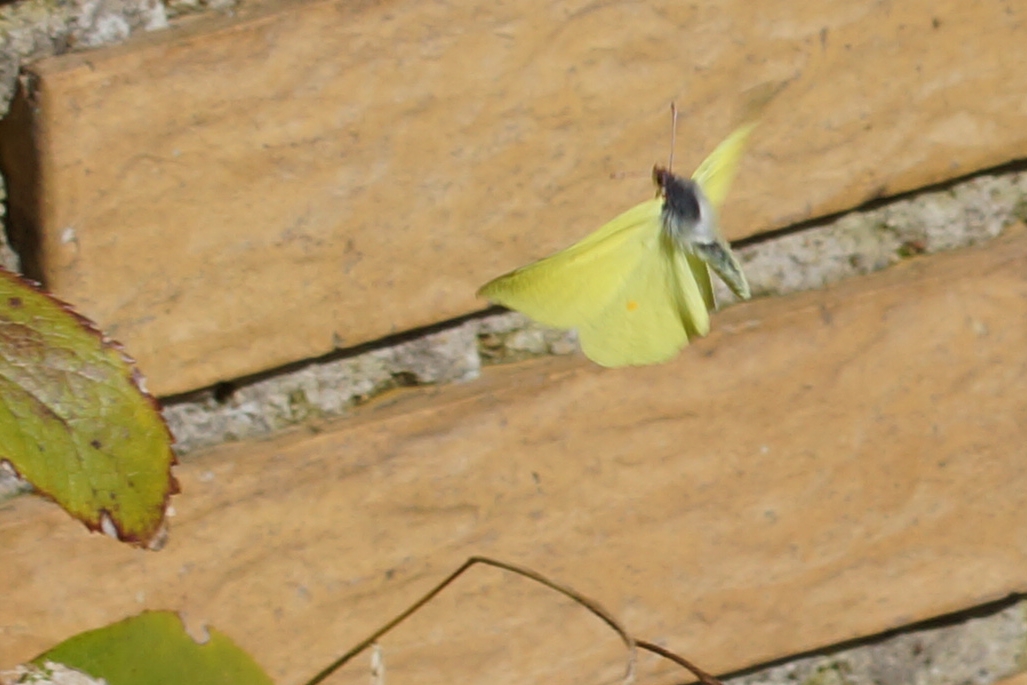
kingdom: Animalia
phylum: Arthropoda
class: Insecta
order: Lepidoptera
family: Pieridae
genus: Gonepteryx
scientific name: Gonepteryx rhamni
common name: Citronsommerfugl
